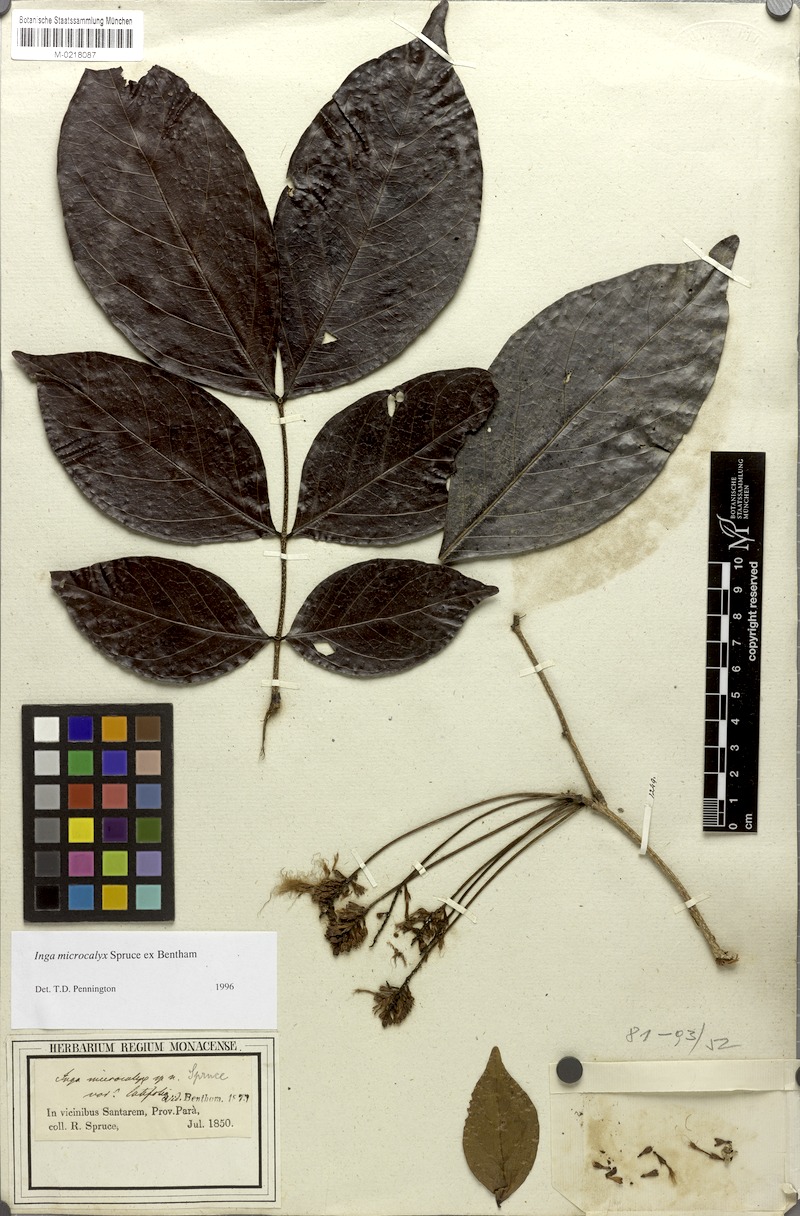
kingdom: Plantae
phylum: Tracheophyta
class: Magnoliopsida
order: Fabales
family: Fabaceae
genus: Inga
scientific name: Inga microcalyx
